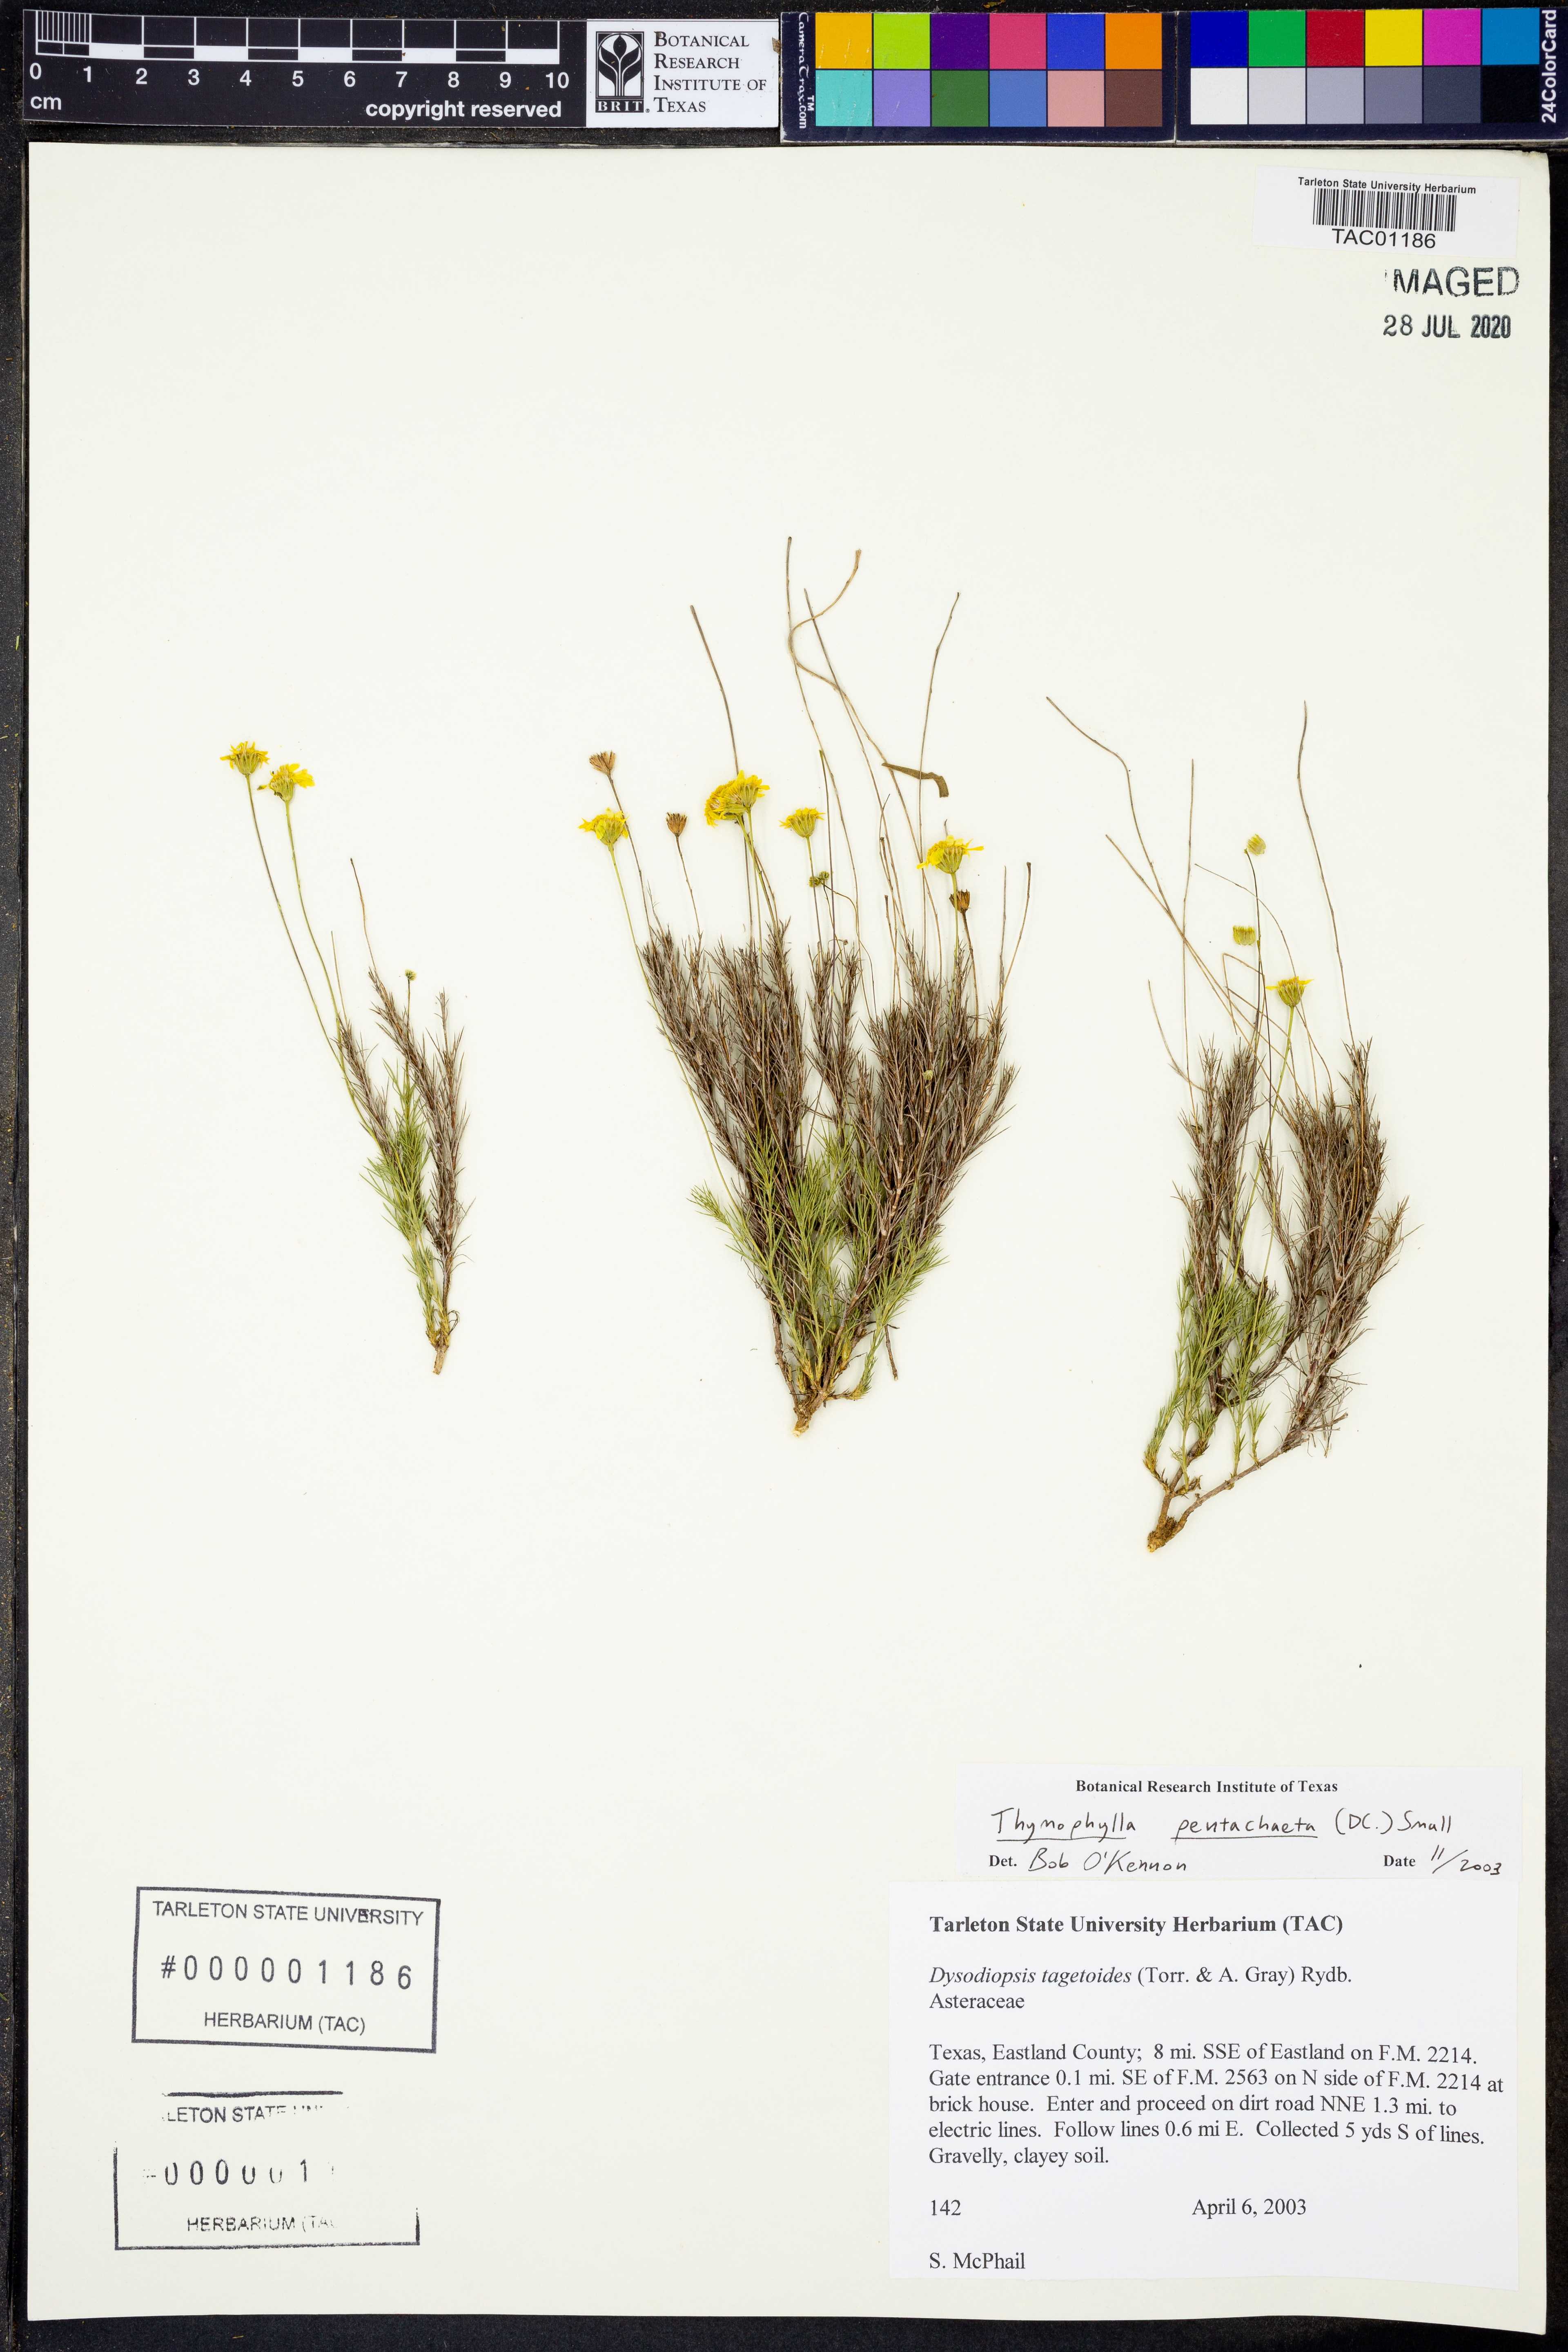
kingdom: Plantae
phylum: Tracheophyta
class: Magnoliopsida
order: Asterales
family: Asteraceae
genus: Thymophylla
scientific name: Thymophylla pentachaeta
